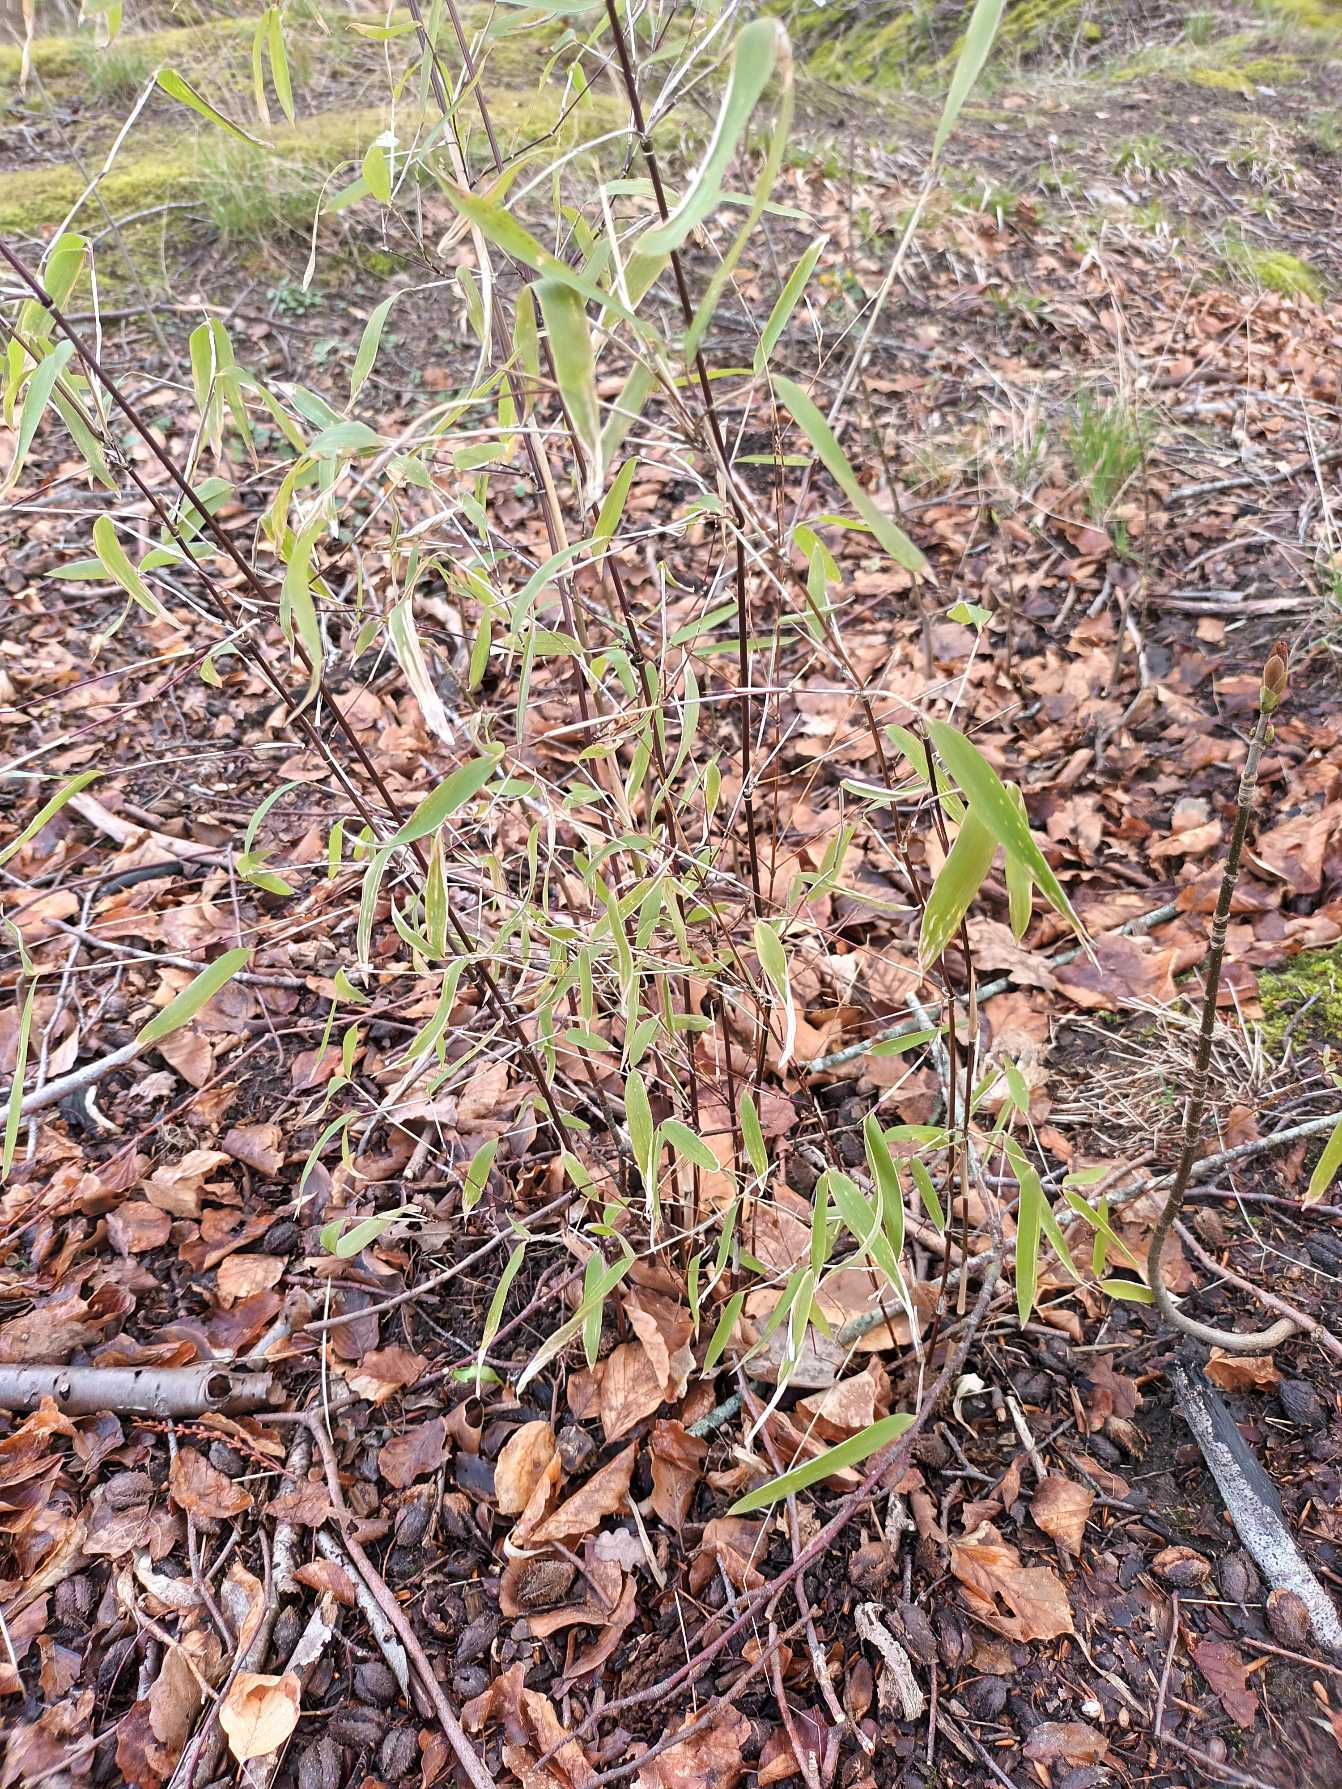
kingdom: Plantae
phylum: Tracheophyta
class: Liliopsida
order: Poales
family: Poaceae
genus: Fargesia
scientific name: Fargesia spathacea
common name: Sort bambus
